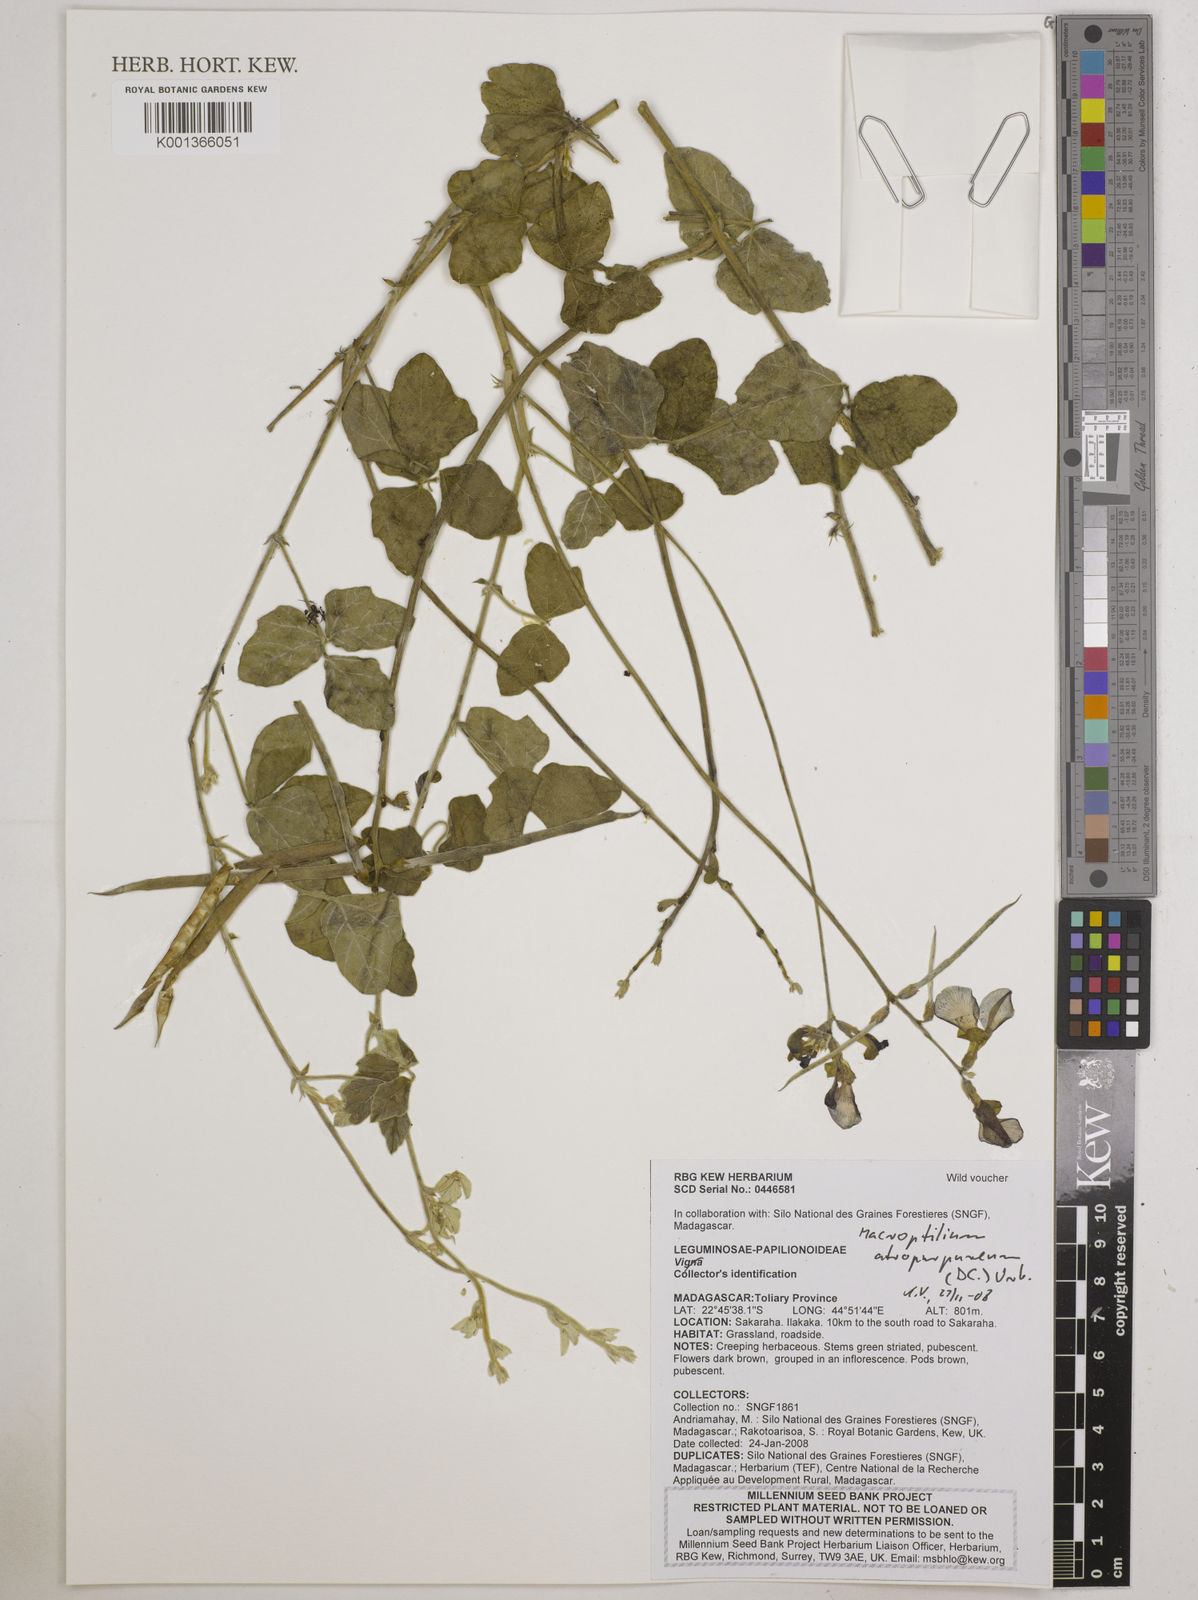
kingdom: Plantae
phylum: Tracheophyta
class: Magnoliopsida
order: Fabales
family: Fabaceae
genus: Macroptilium
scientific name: Macroptilium atropurpureum
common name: Purple bushbean
